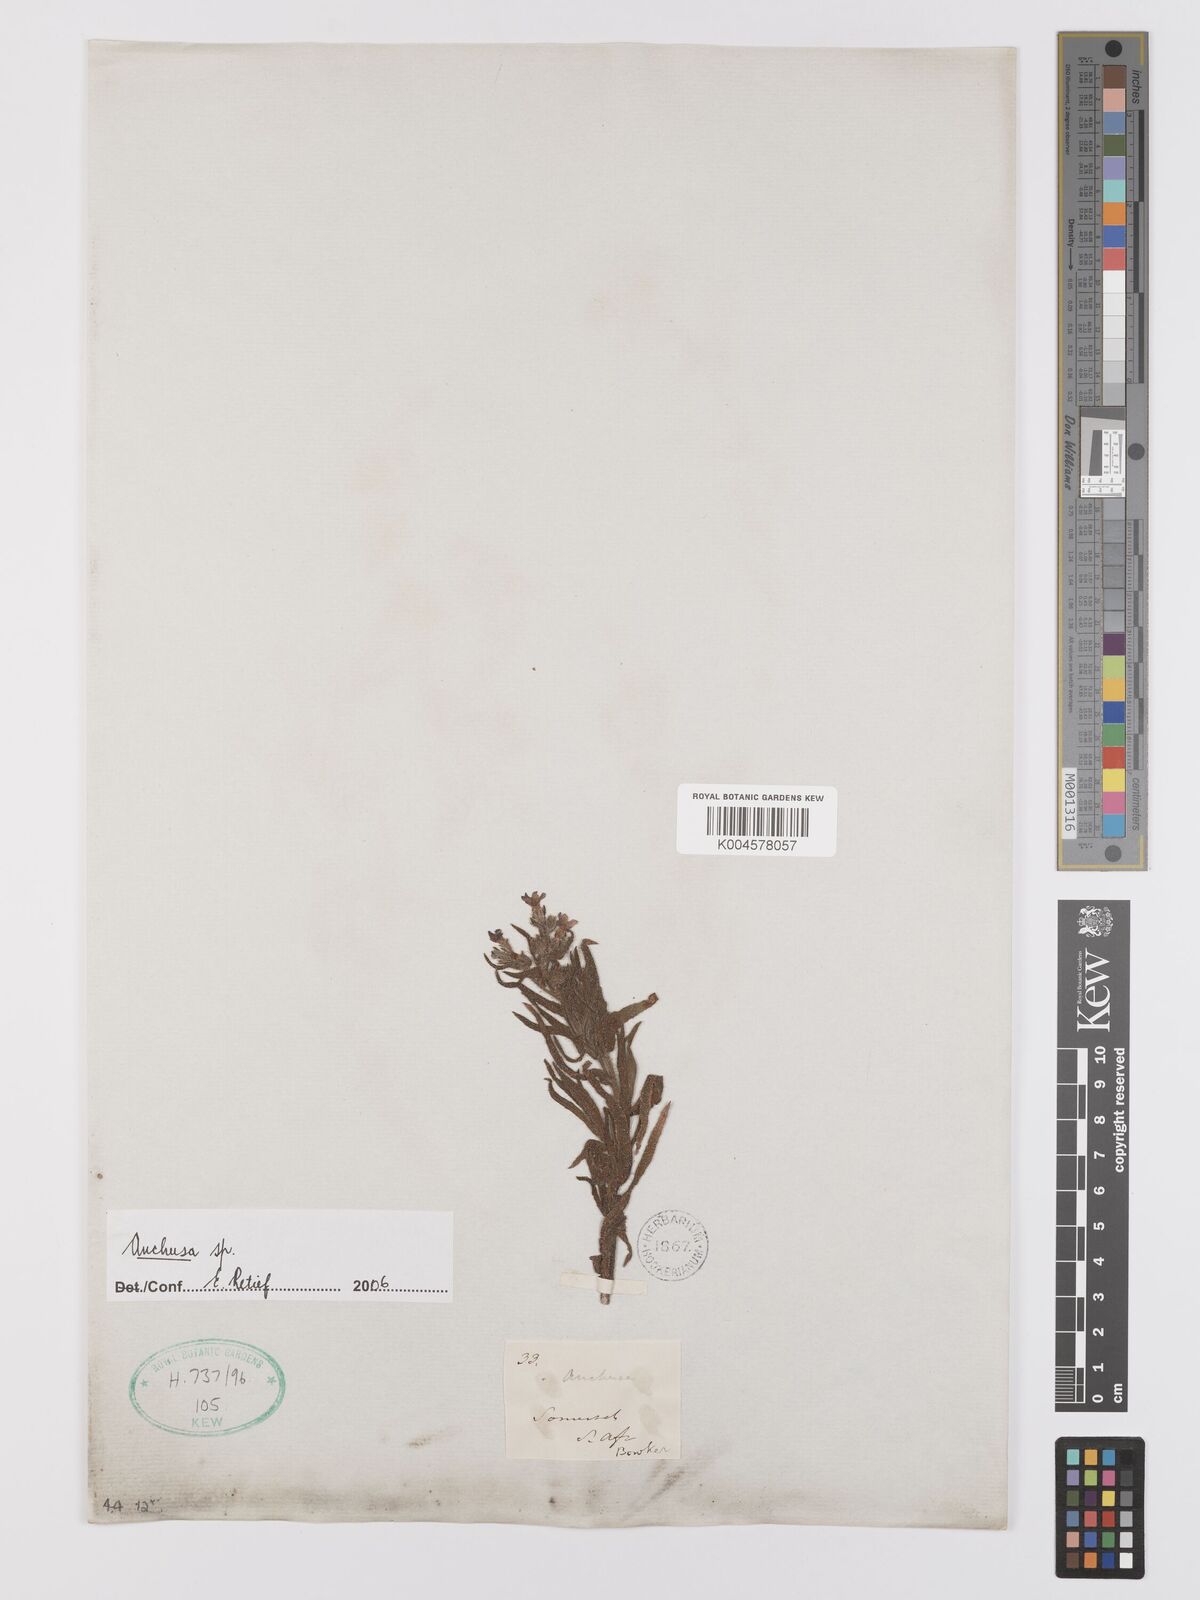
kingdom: Plantae
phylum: Tracheophyta
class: Magnoliopsida
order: Boraginales
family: Boraginaceae
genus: Anchusa
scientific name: Anchusa
